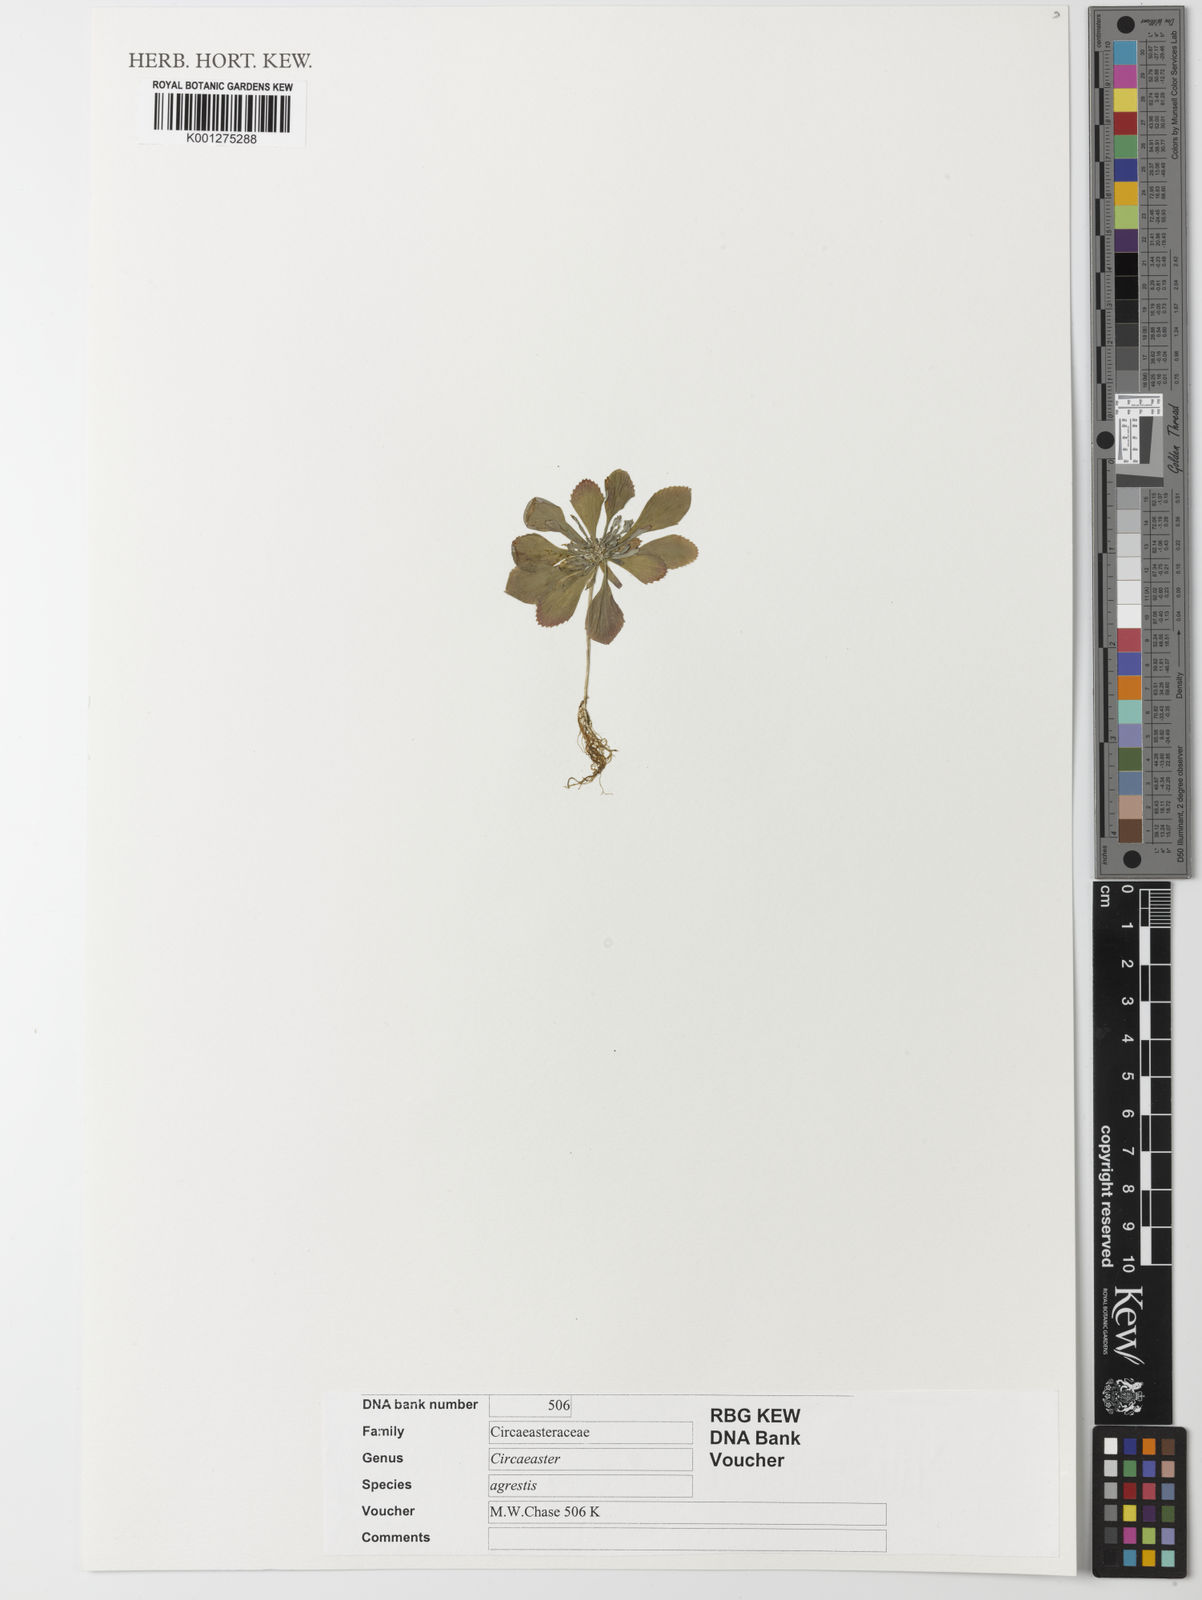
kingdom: Plantae
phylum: Tracheophyta
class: Magnoliopsida
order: Ranunculales
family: Circaeasteraceae
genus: Circaeaster
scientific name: Circaeaster agrestis
